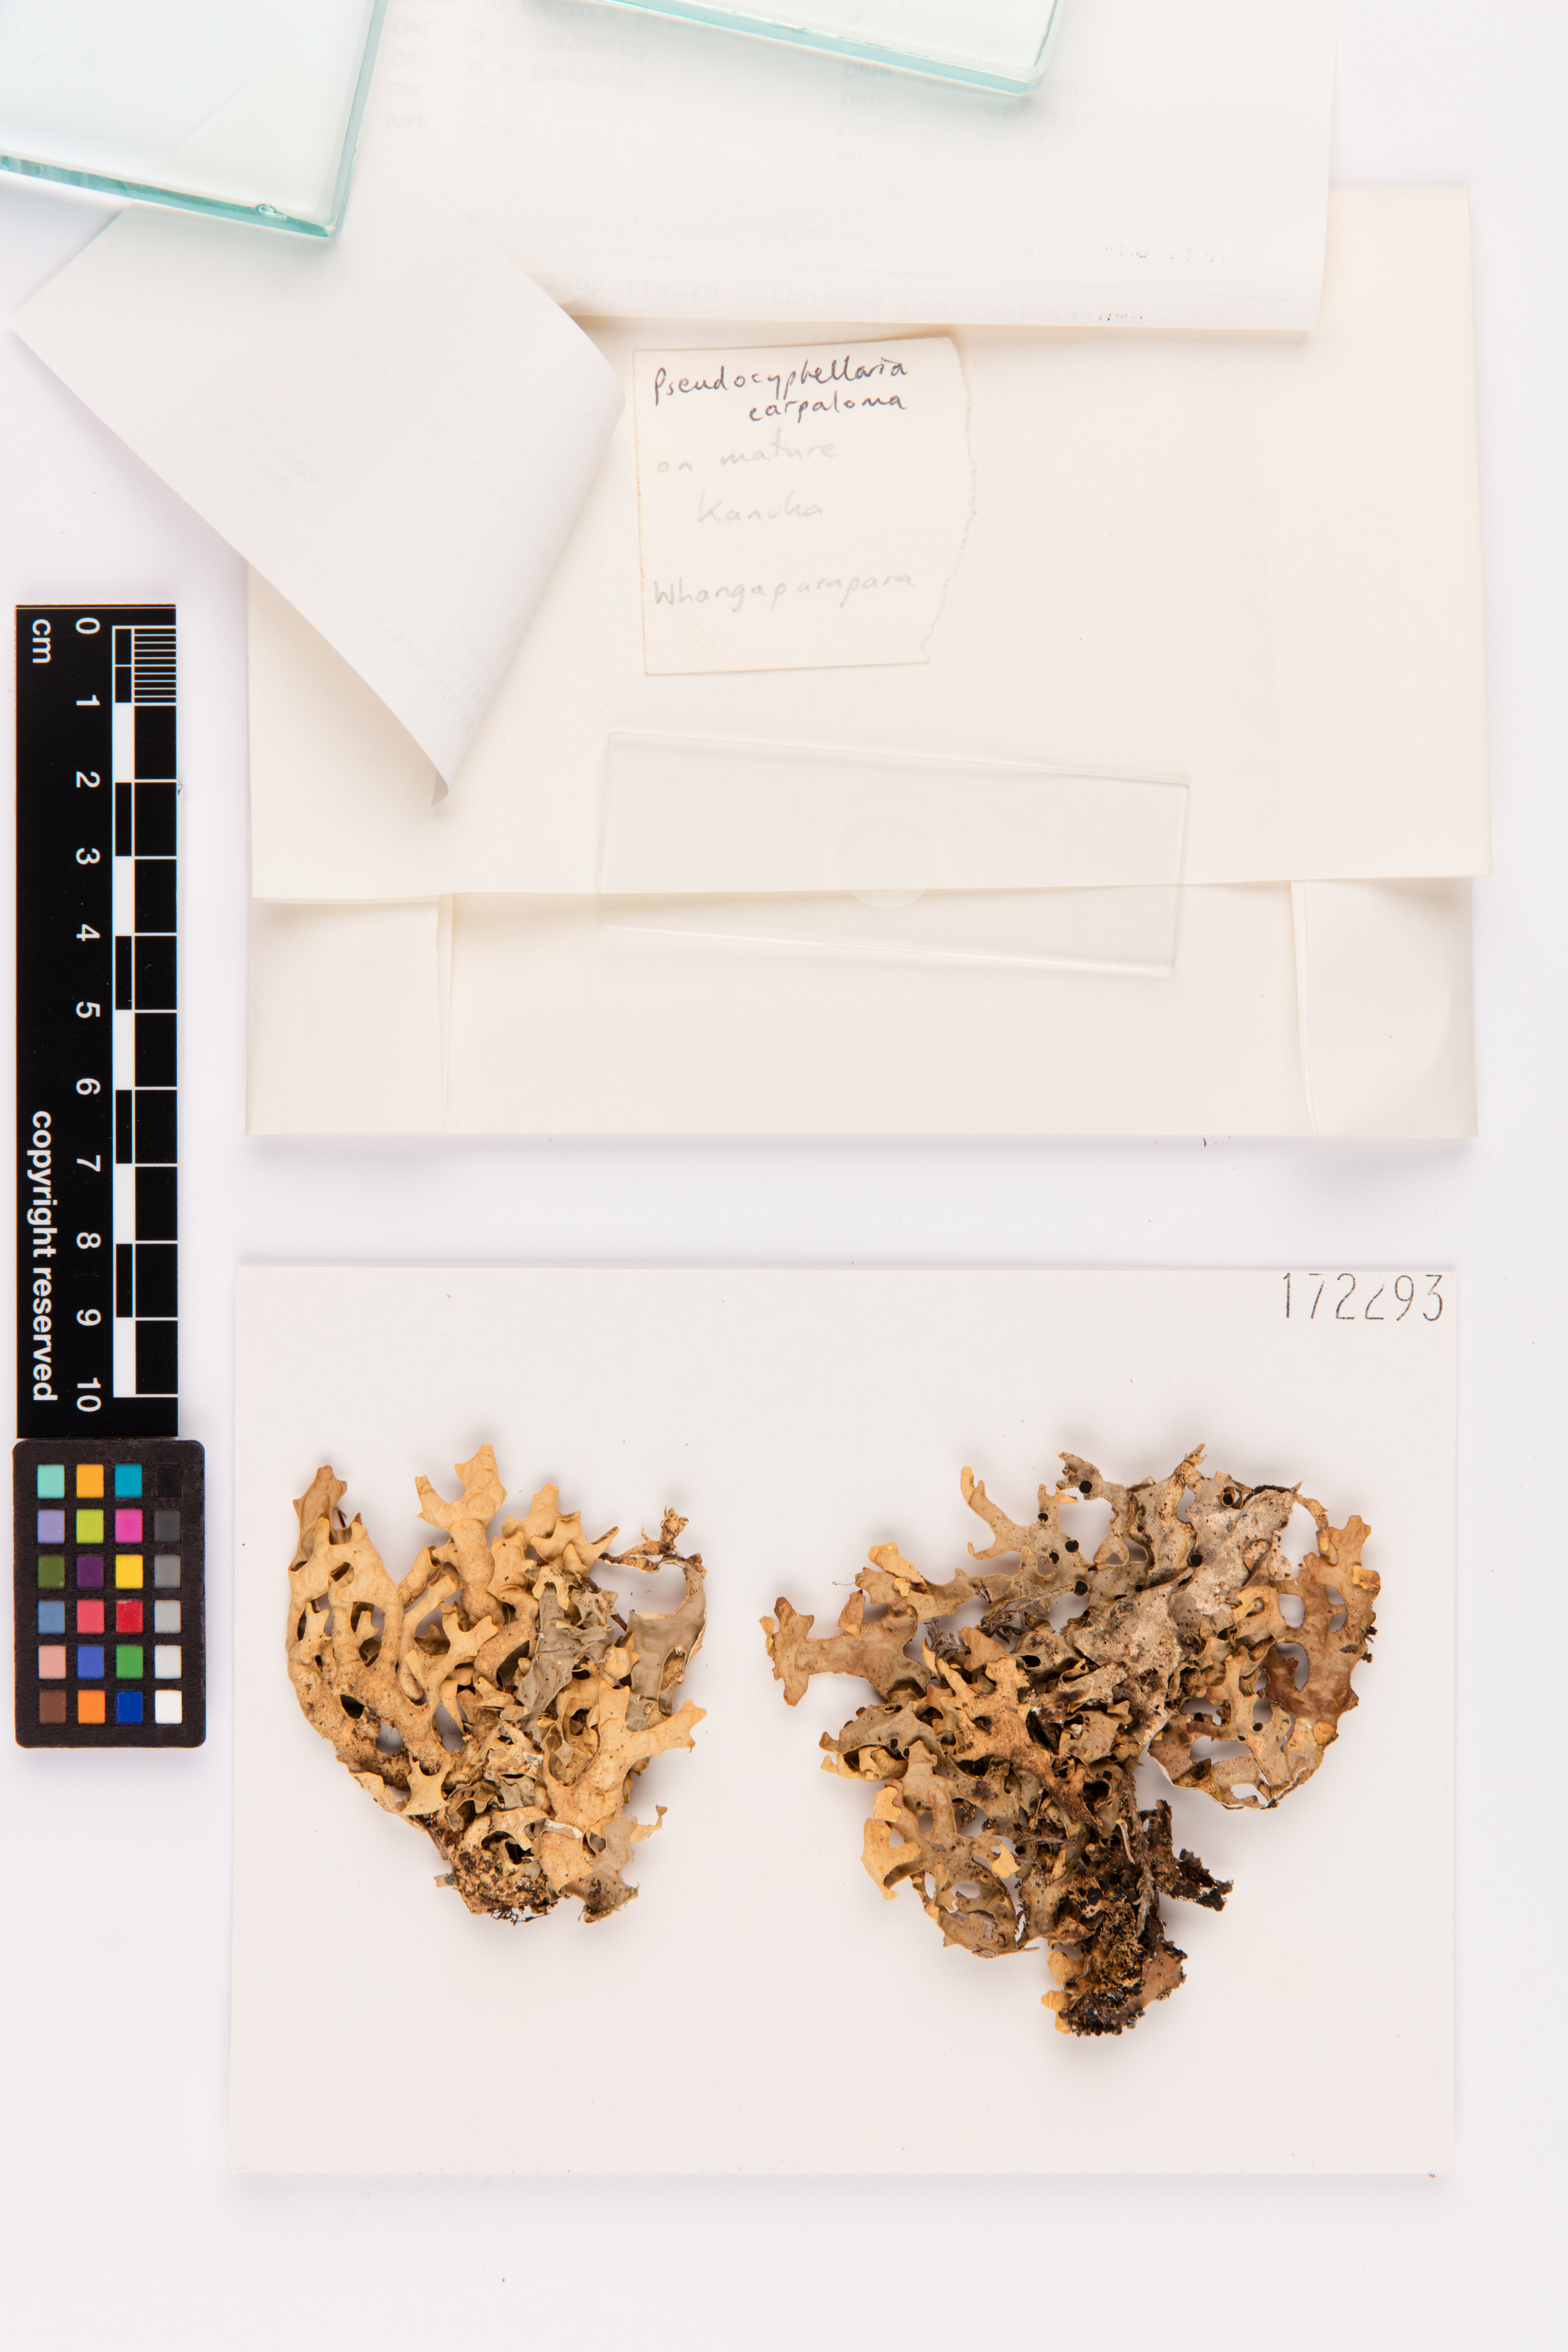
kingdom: Fungi
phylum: Ascomycota
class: Lecanoromycetes
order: Peltigerales
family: Lobariaceae
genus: Pseudocyphellaria
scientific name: Pseudocyphellaria carpoloma
